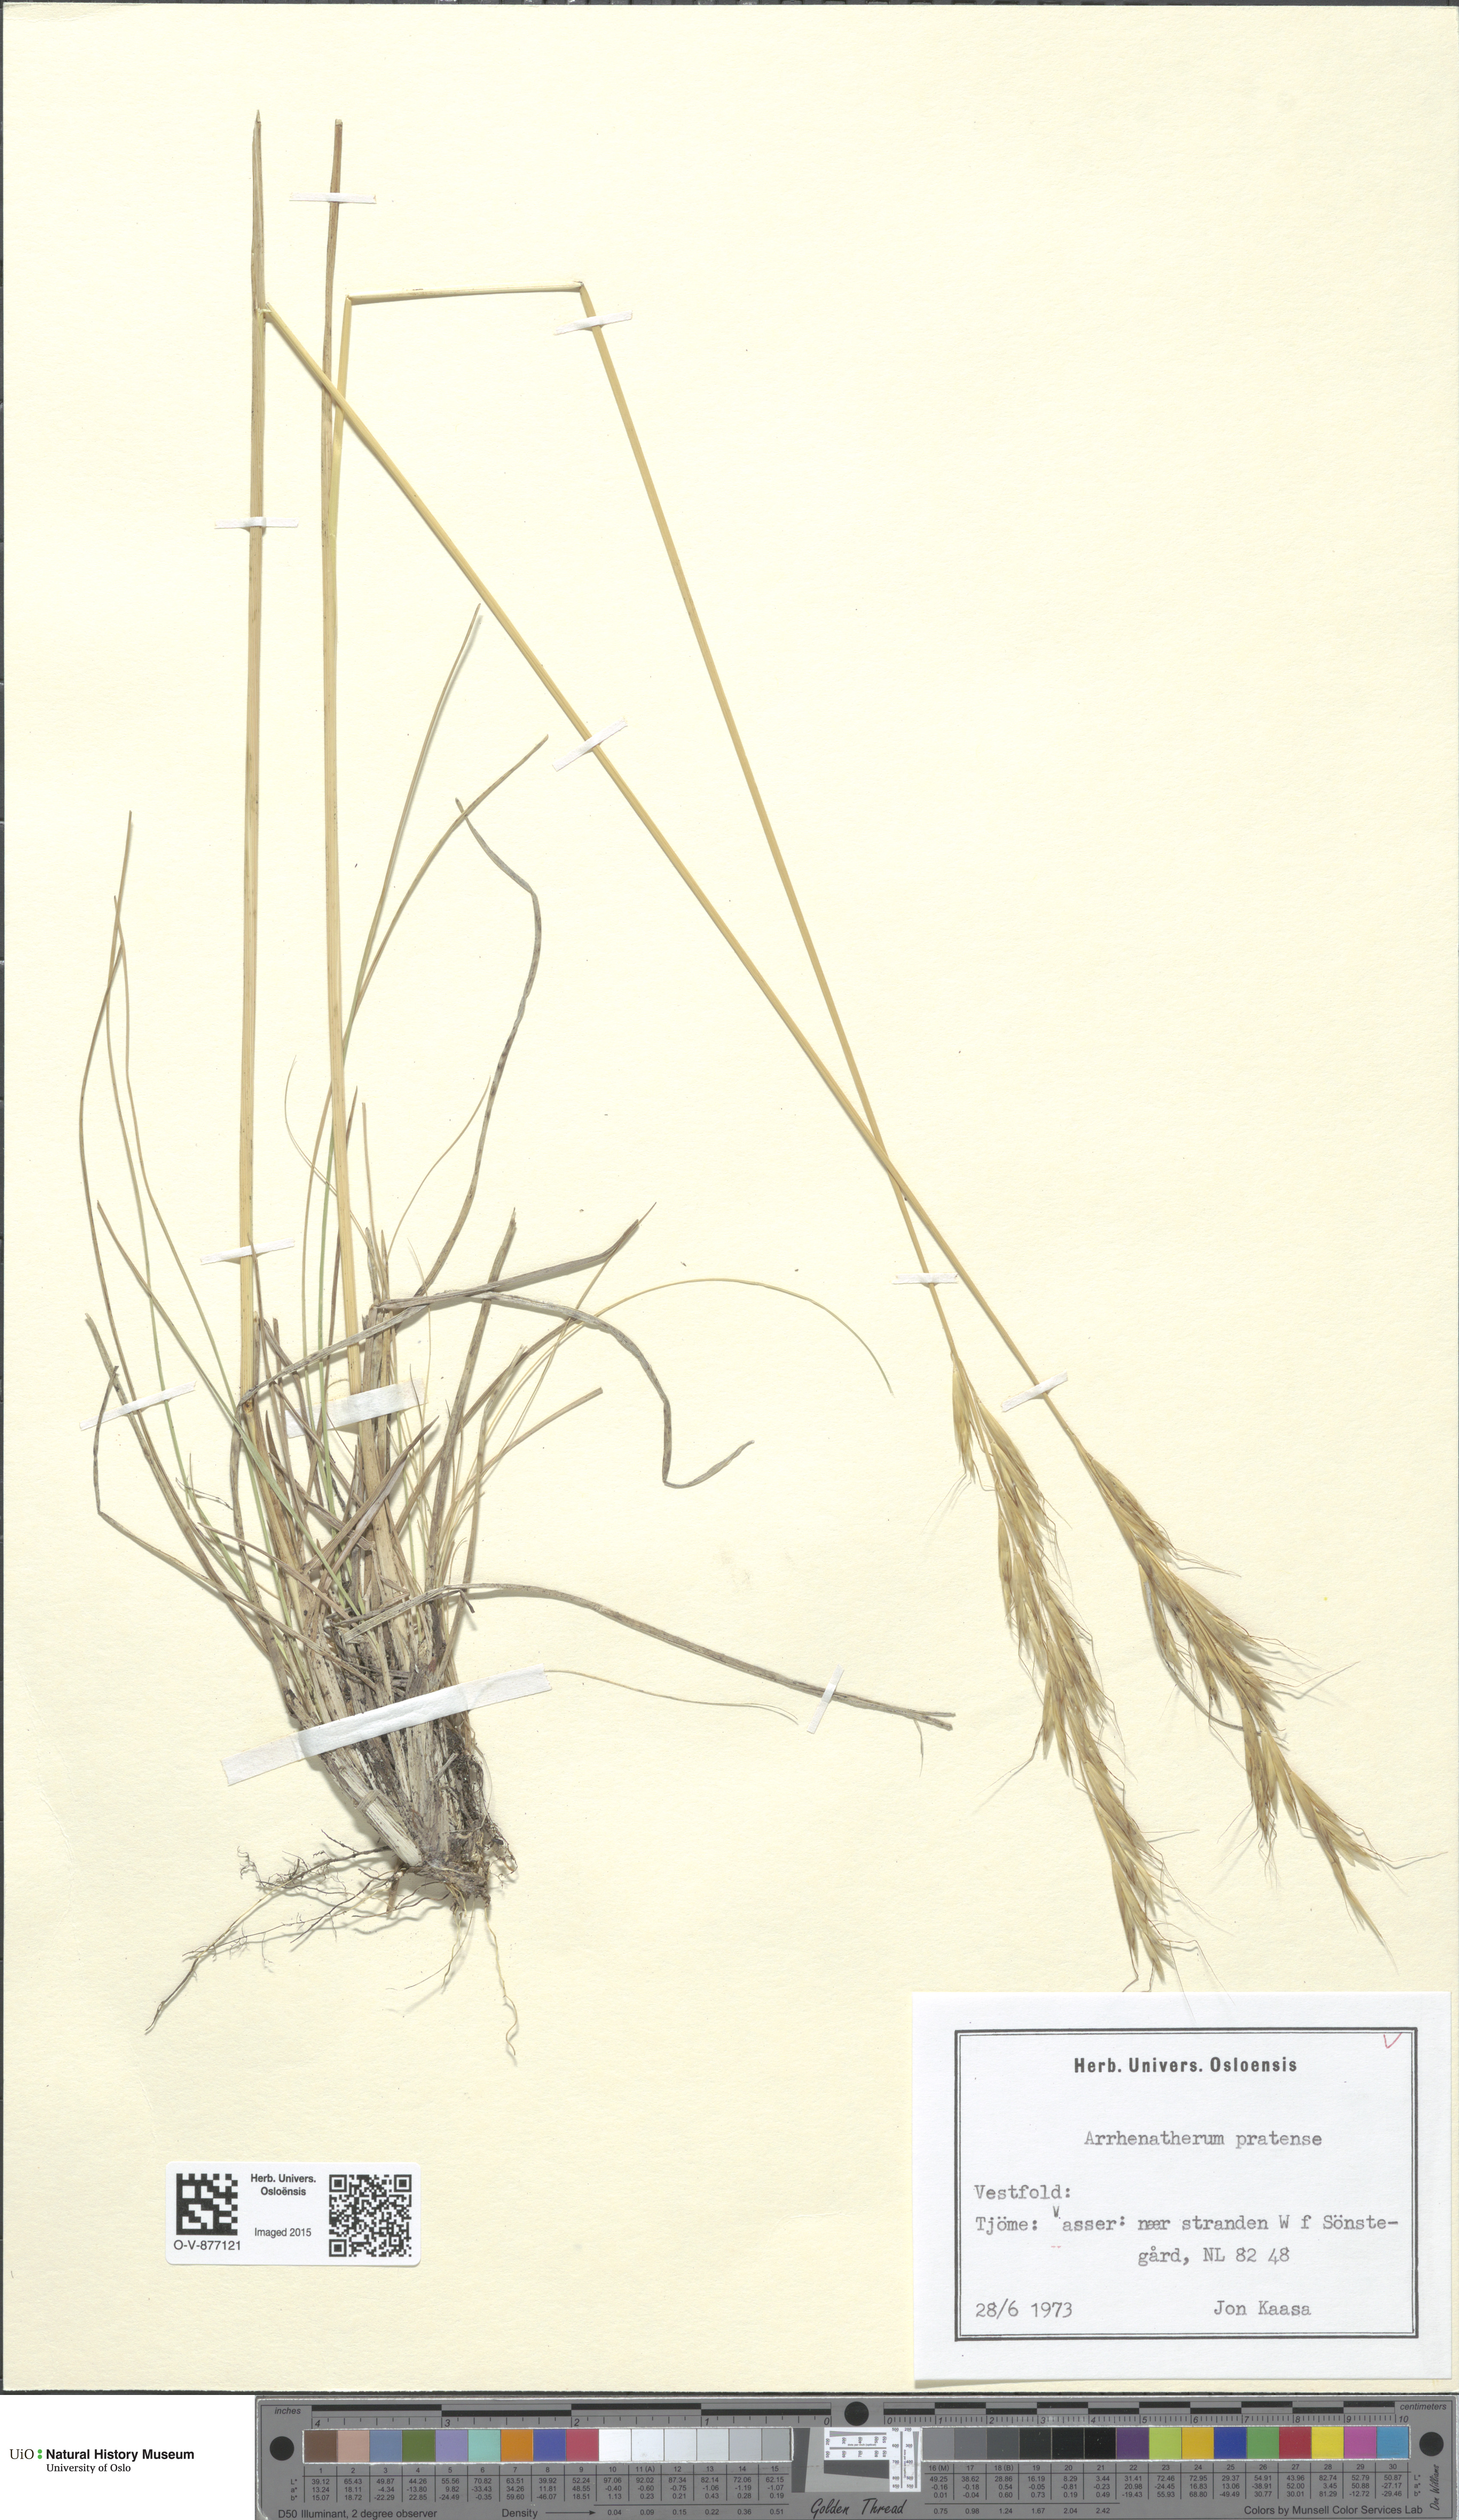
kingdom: Plantae
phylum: Tracheophyta
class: Liliopsida
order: Poales
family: Poaceae
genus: Helictochloa
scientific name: Helictochloa pratensis
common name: Meadow oat grass
